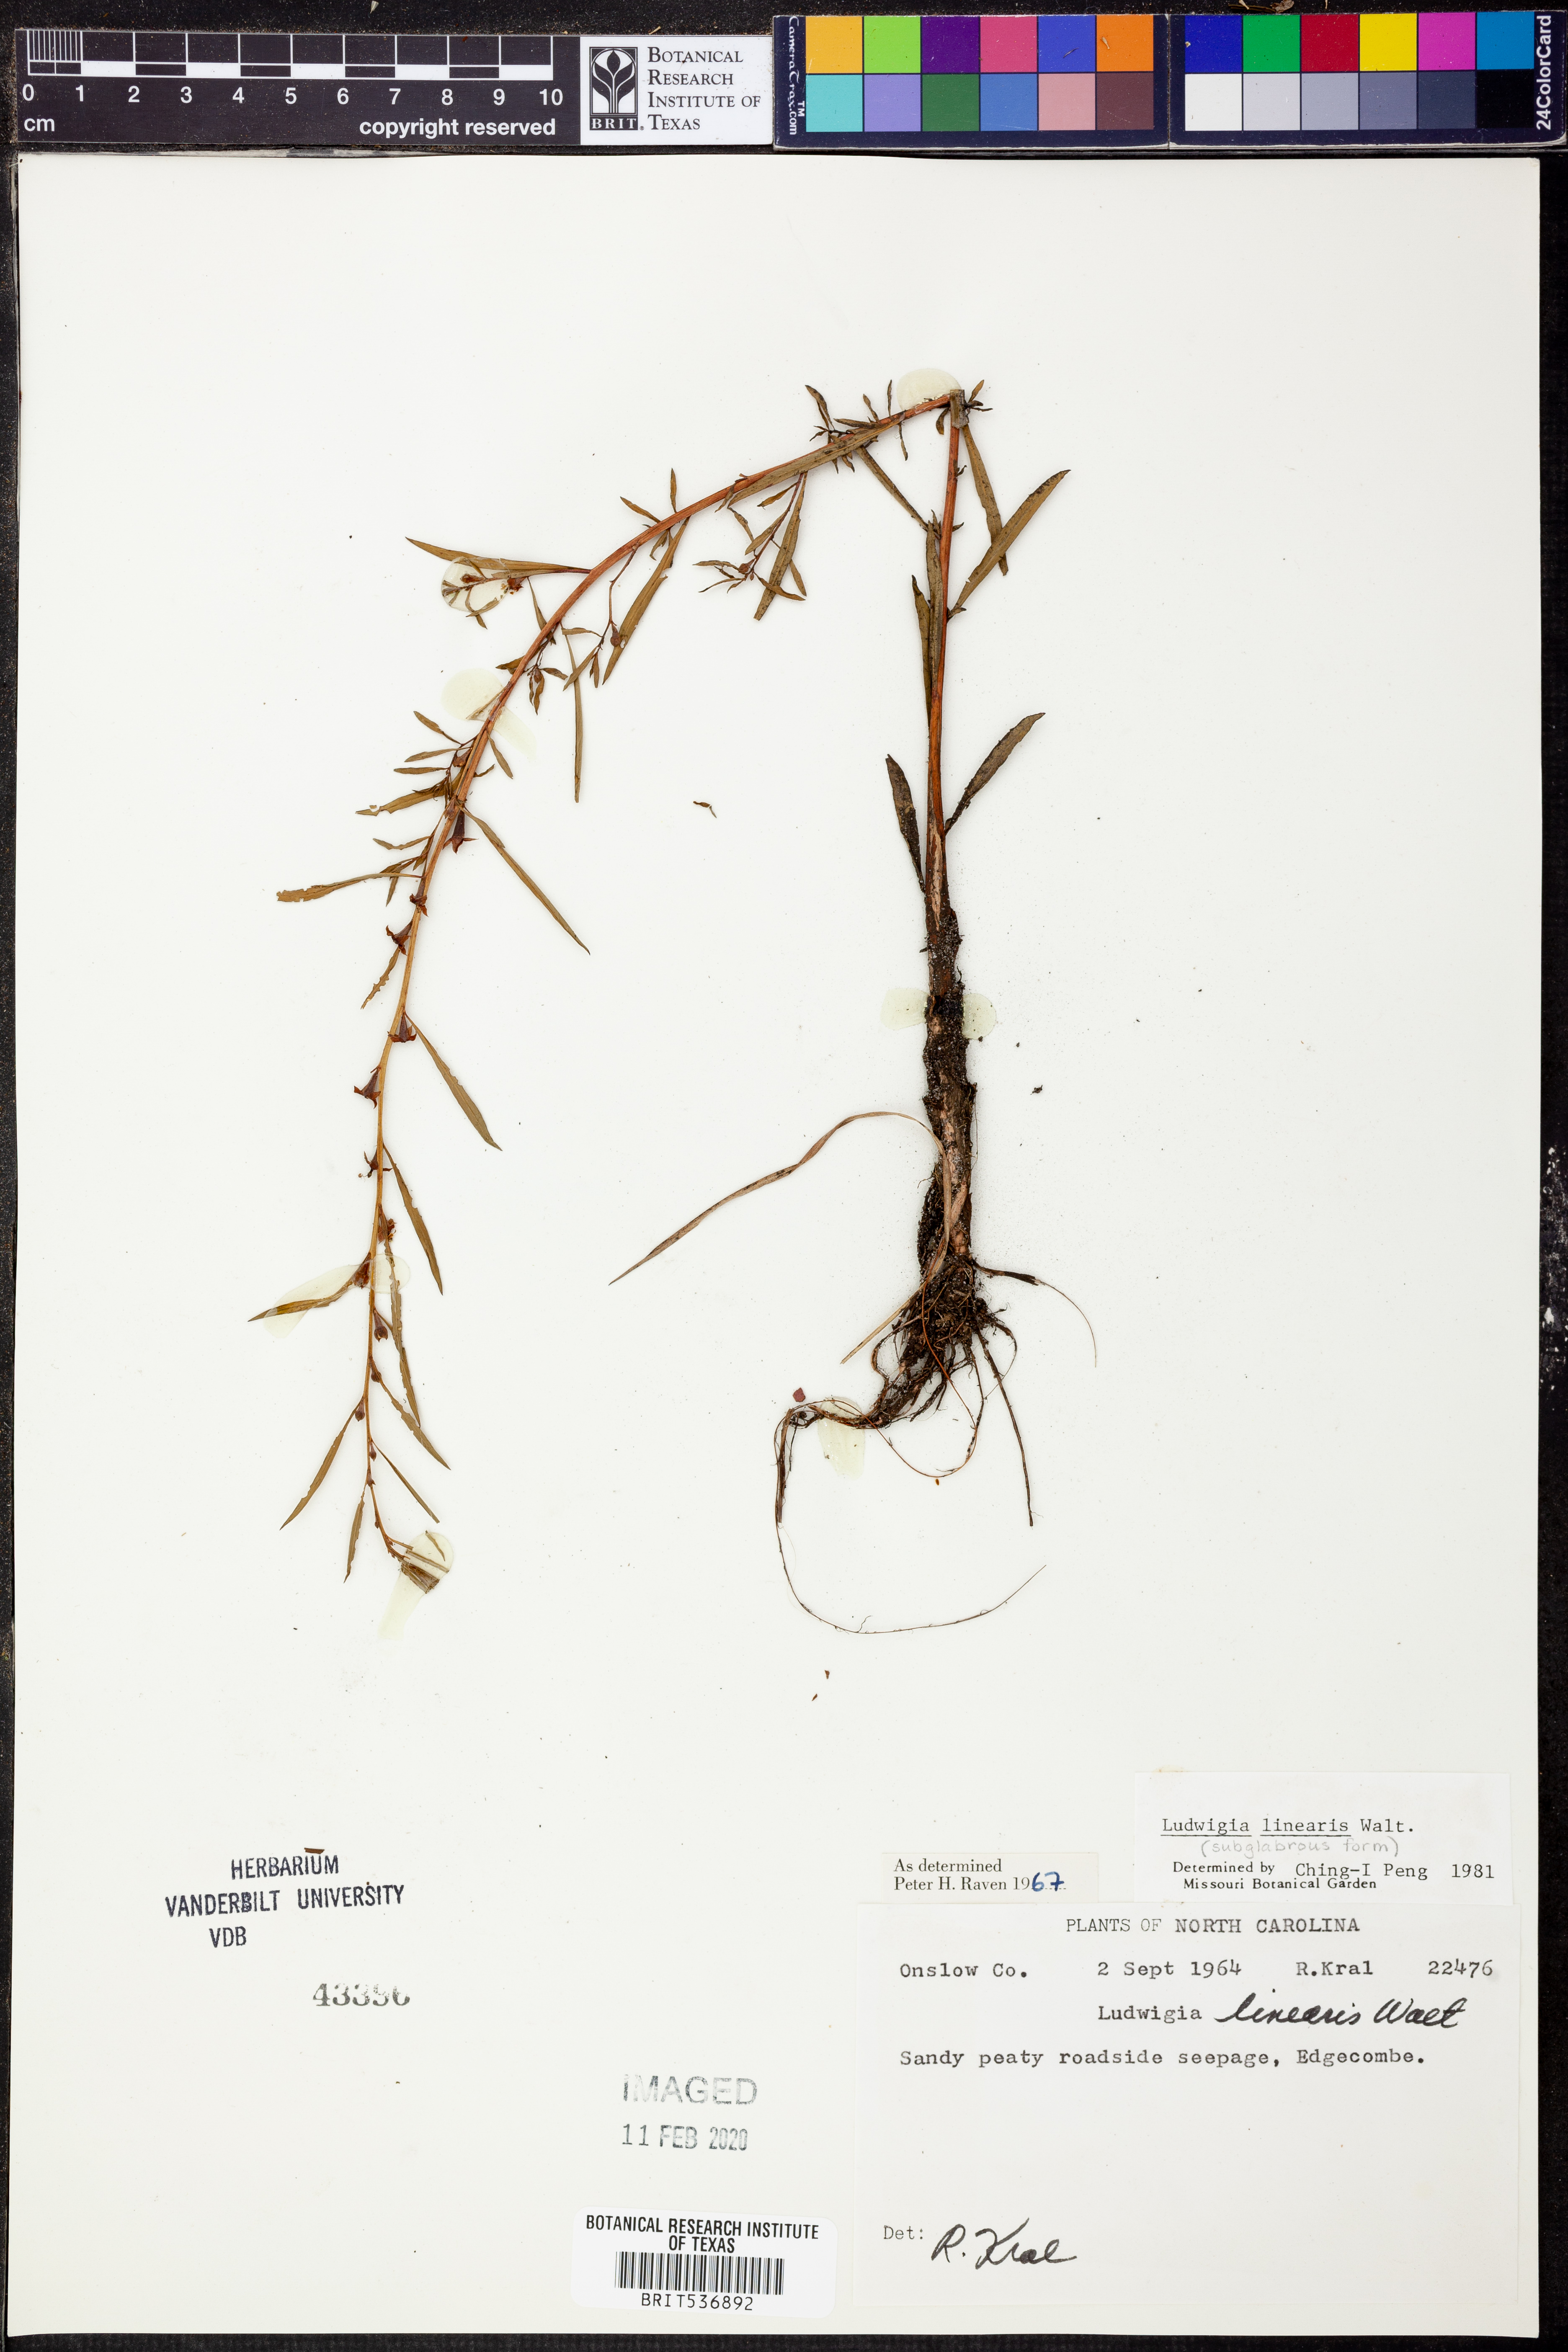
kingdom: Plantae
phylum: Tracheophyta
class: Magnoliopsida
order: Myrtales
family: Onagraceae
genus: Ludwigia
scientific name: Ludwigia linearis
